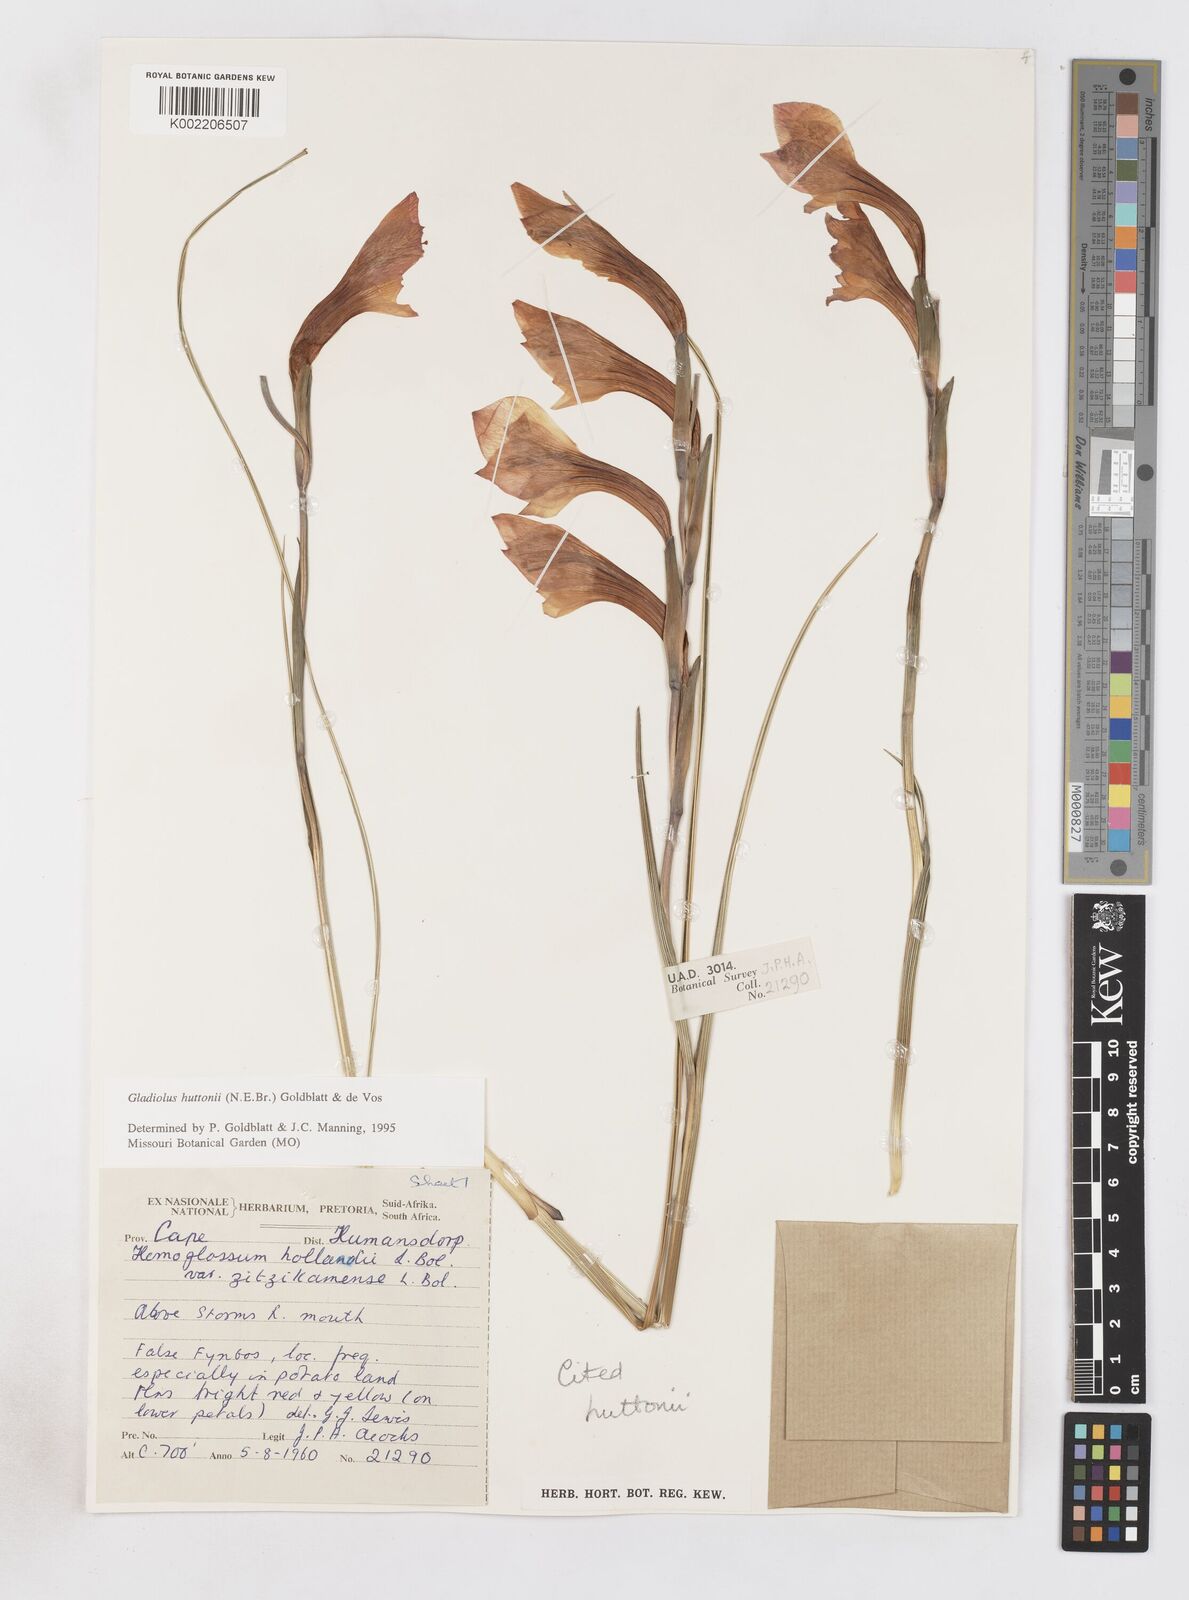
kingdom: Plantae
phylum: Tracheophyta
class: Liliopsida
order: Asparagales
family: Iridaceae
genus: Gladiolus
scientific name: Gladiolus huttonii
